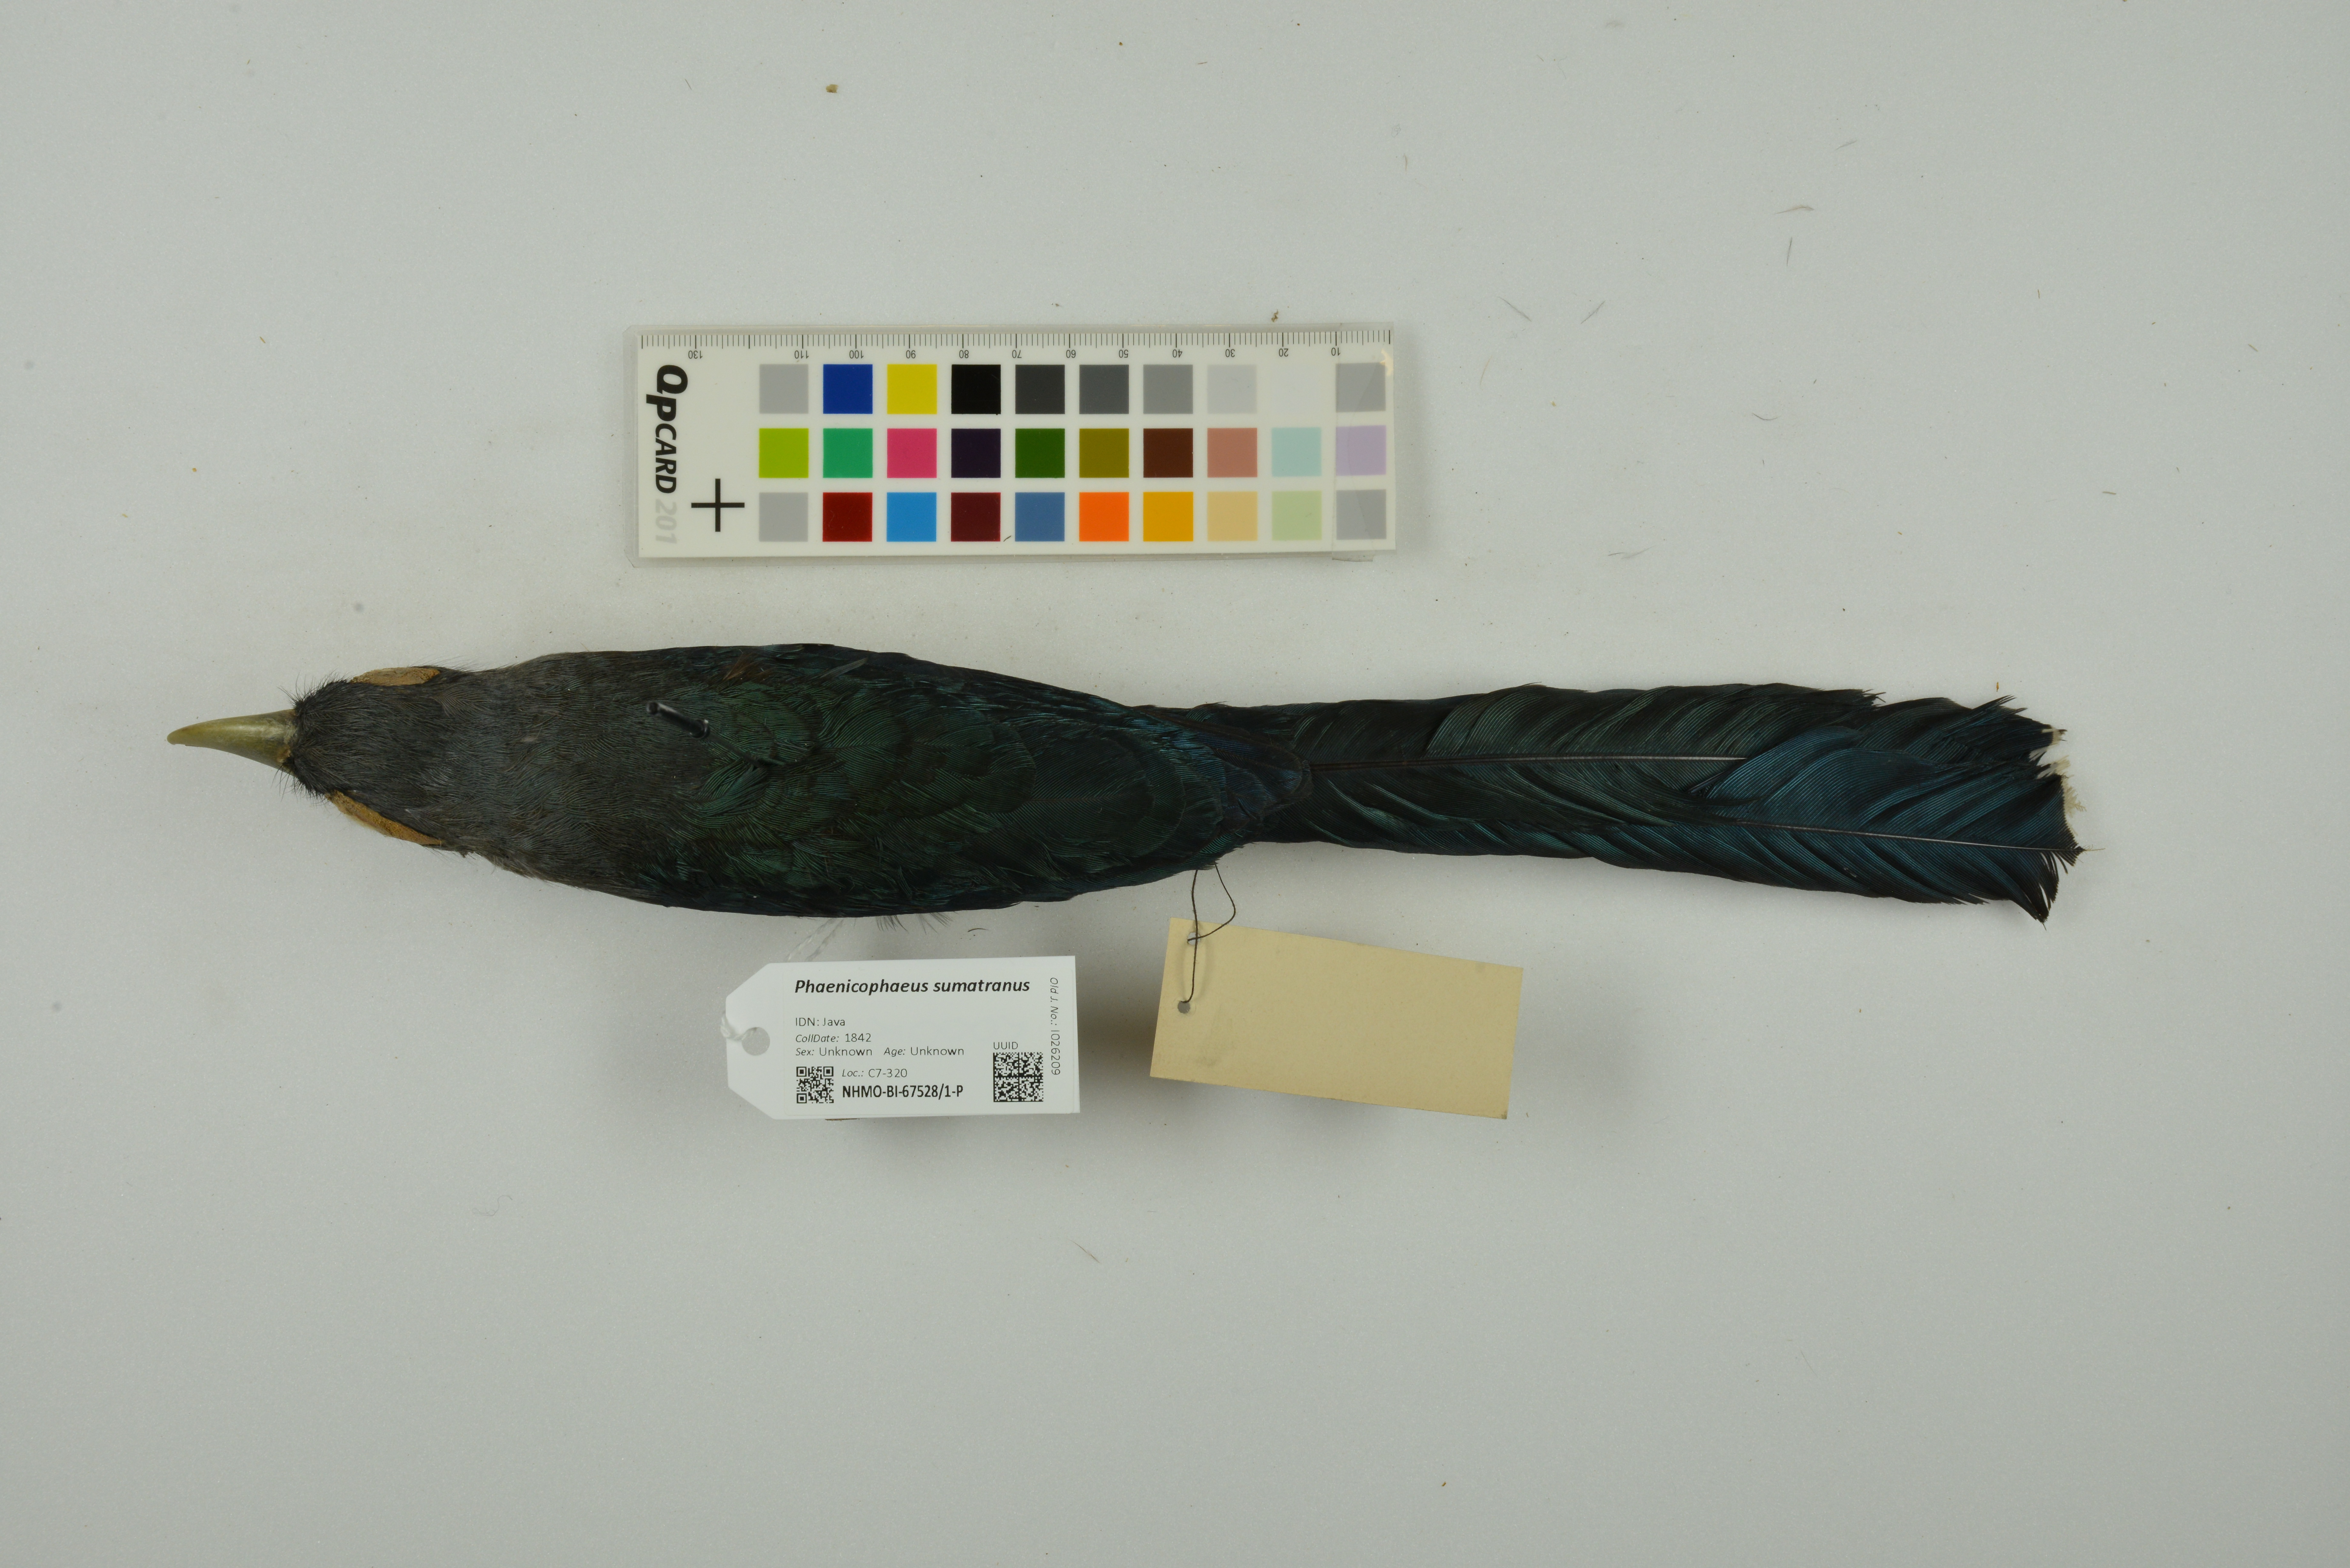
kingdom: Animalia
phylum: Chordata
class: Aves
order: Cuculiformes
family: Cuculidae
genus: Rhopodytes
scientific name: Rhopodytes sumatranus
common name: Rufous-bellied malcoha
